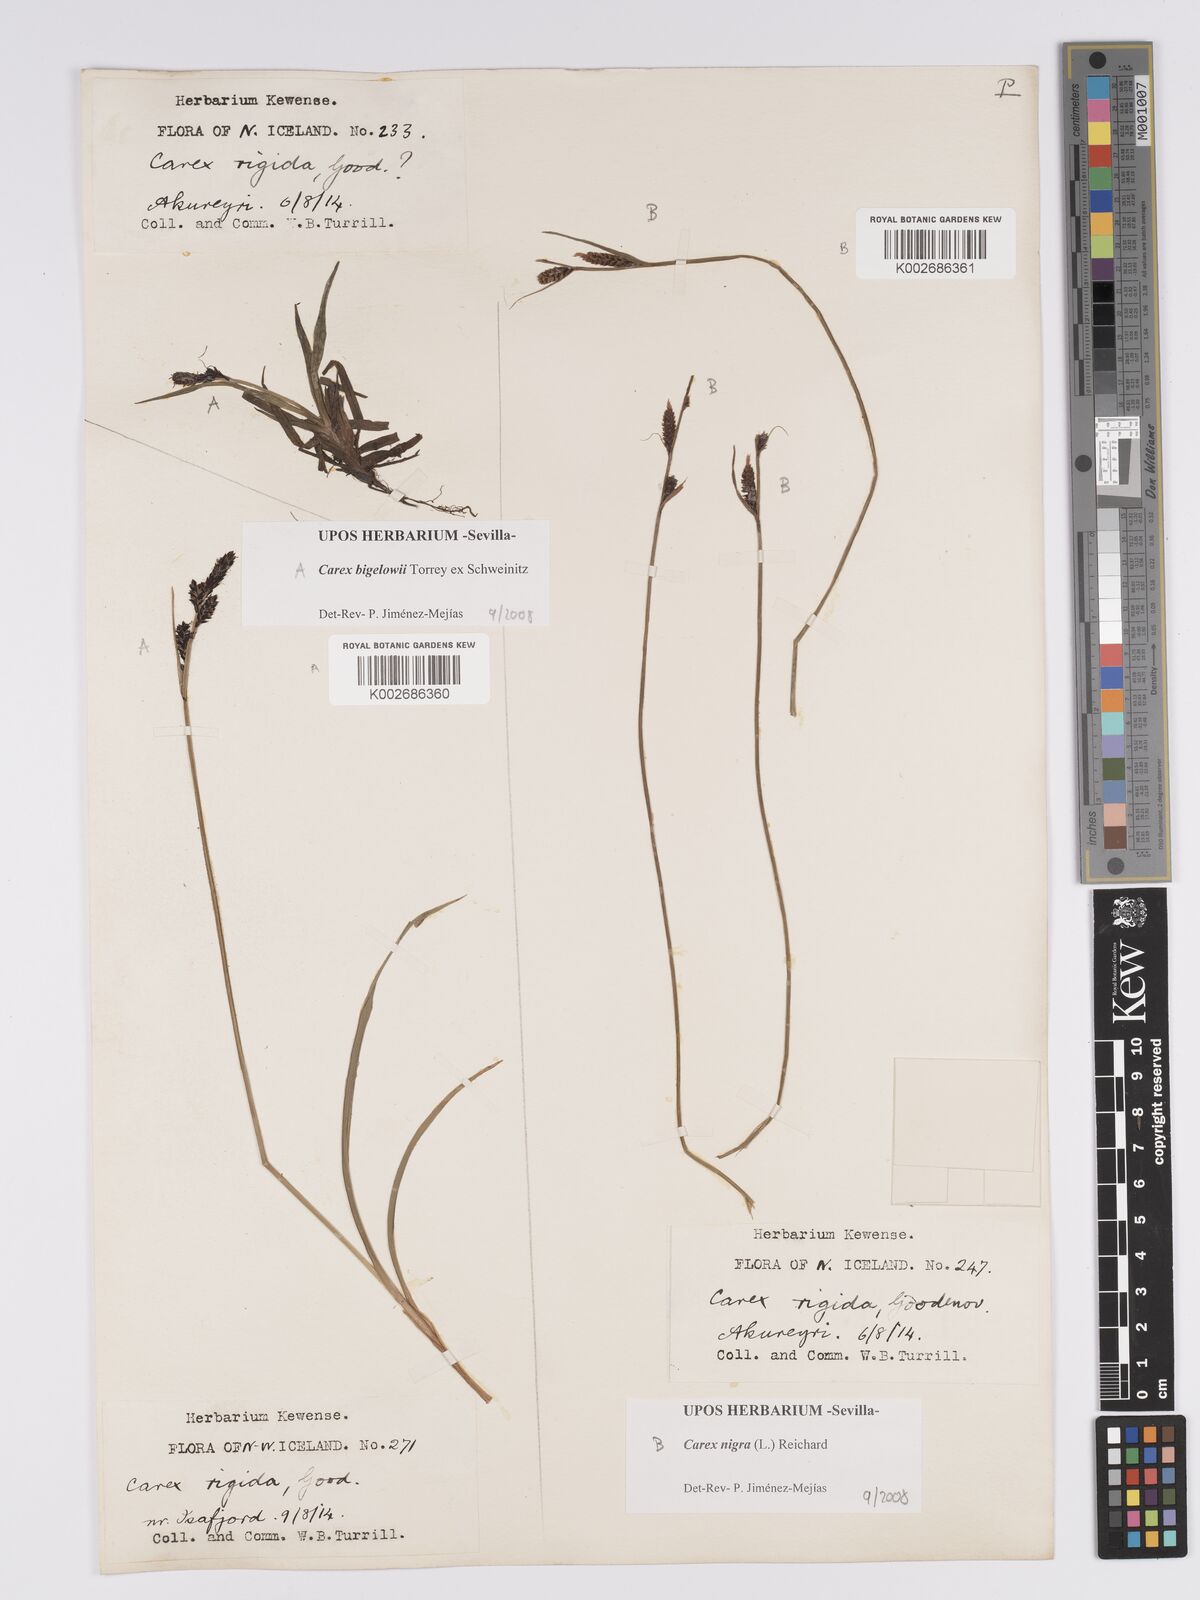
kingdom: Plantae
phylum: Tracheophyta
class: Liliopsida
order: Poales
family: Cyperaceae
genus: Carex
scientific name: Carex bigelowii
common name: Stiff sedge
